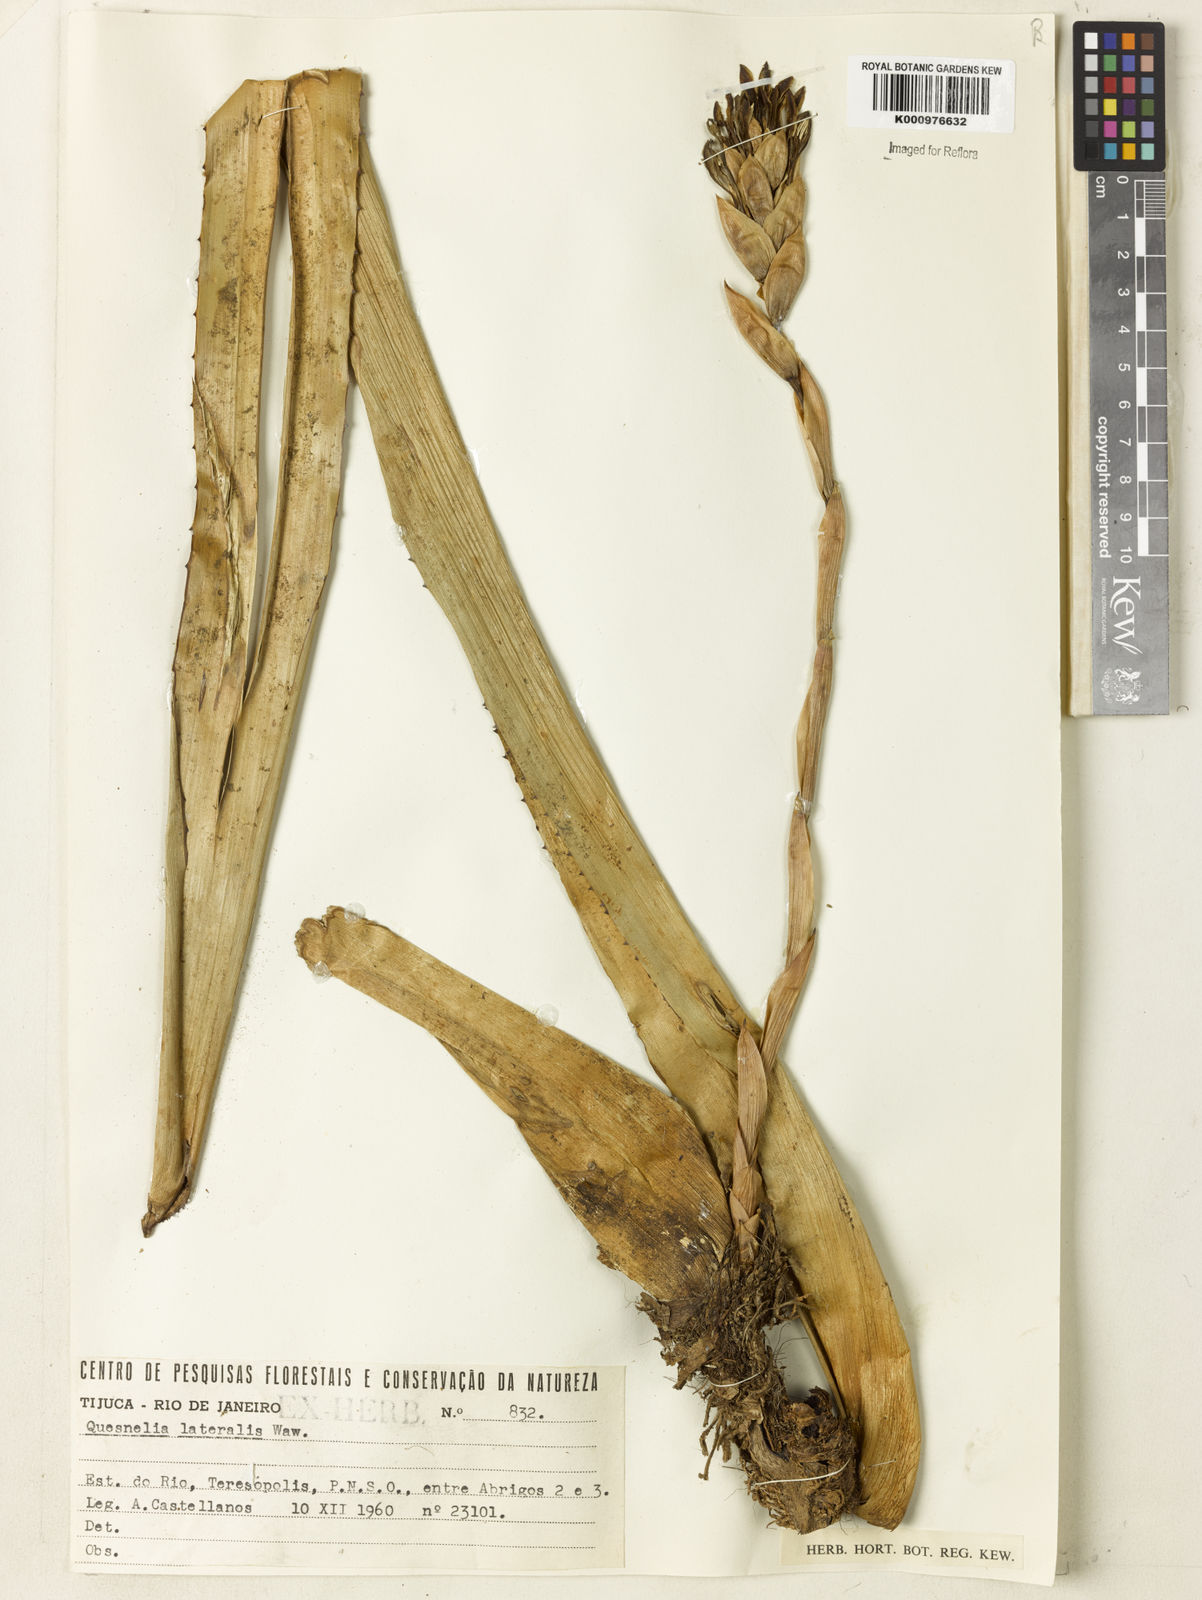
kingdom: Plantae
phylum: Tracheophyta
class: Liliopsida
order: Poales
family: Bromeliaceae
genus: Quesnelia
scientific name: Quesnelia lateralis
